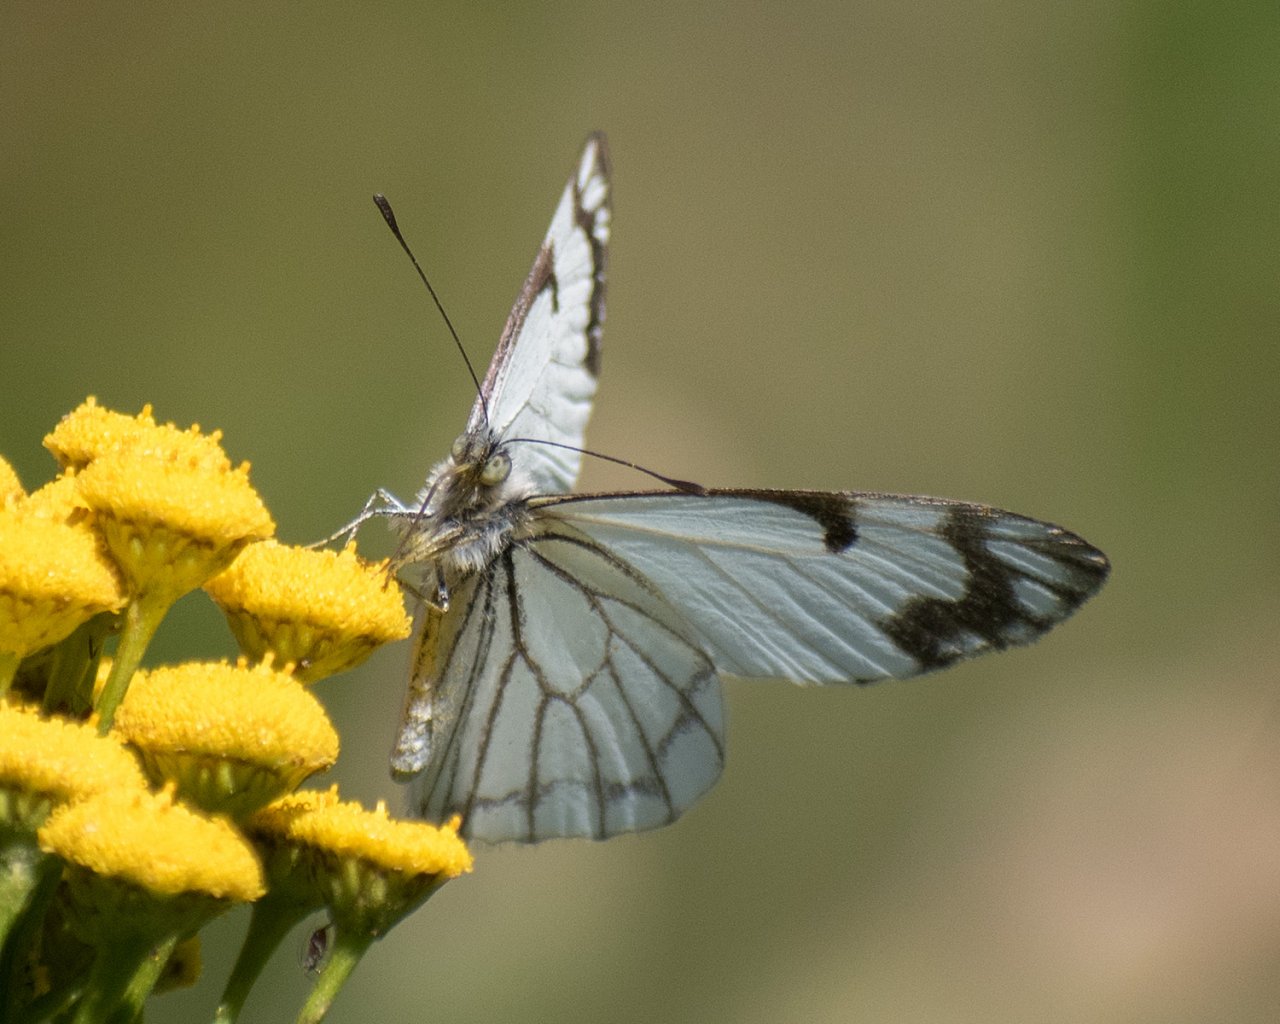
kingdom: Animalia
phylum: Arthropoda
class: Insecta
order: Lepidoptera
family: Pieridae
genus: Neophasia
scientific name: Neophasia menapia
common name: Pine White
